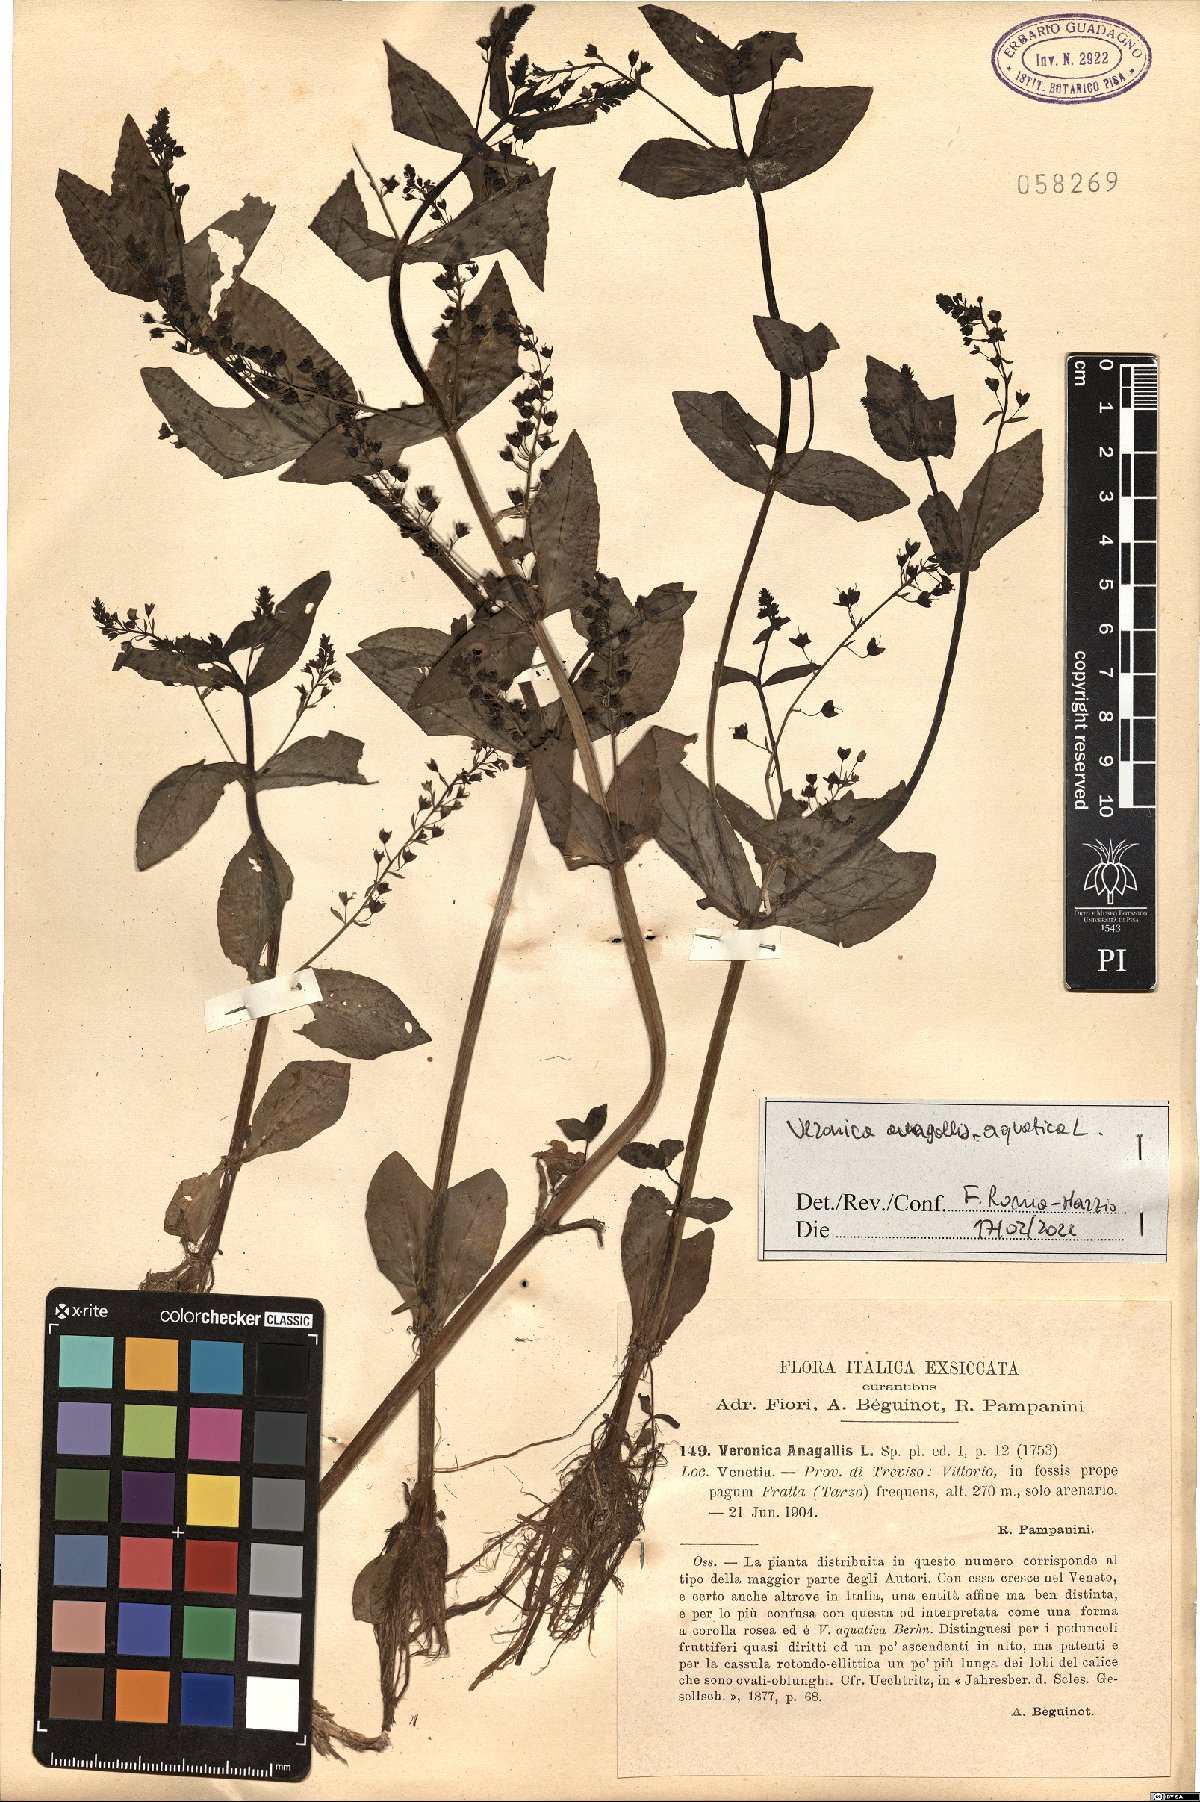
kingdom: Plantae
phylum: Tracheophyta
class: Magnoliopsida
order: Lamiales
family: Plantaginaceae
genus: Veronica
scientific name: Veronica anagallis-aquatica
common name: Water speedwell
